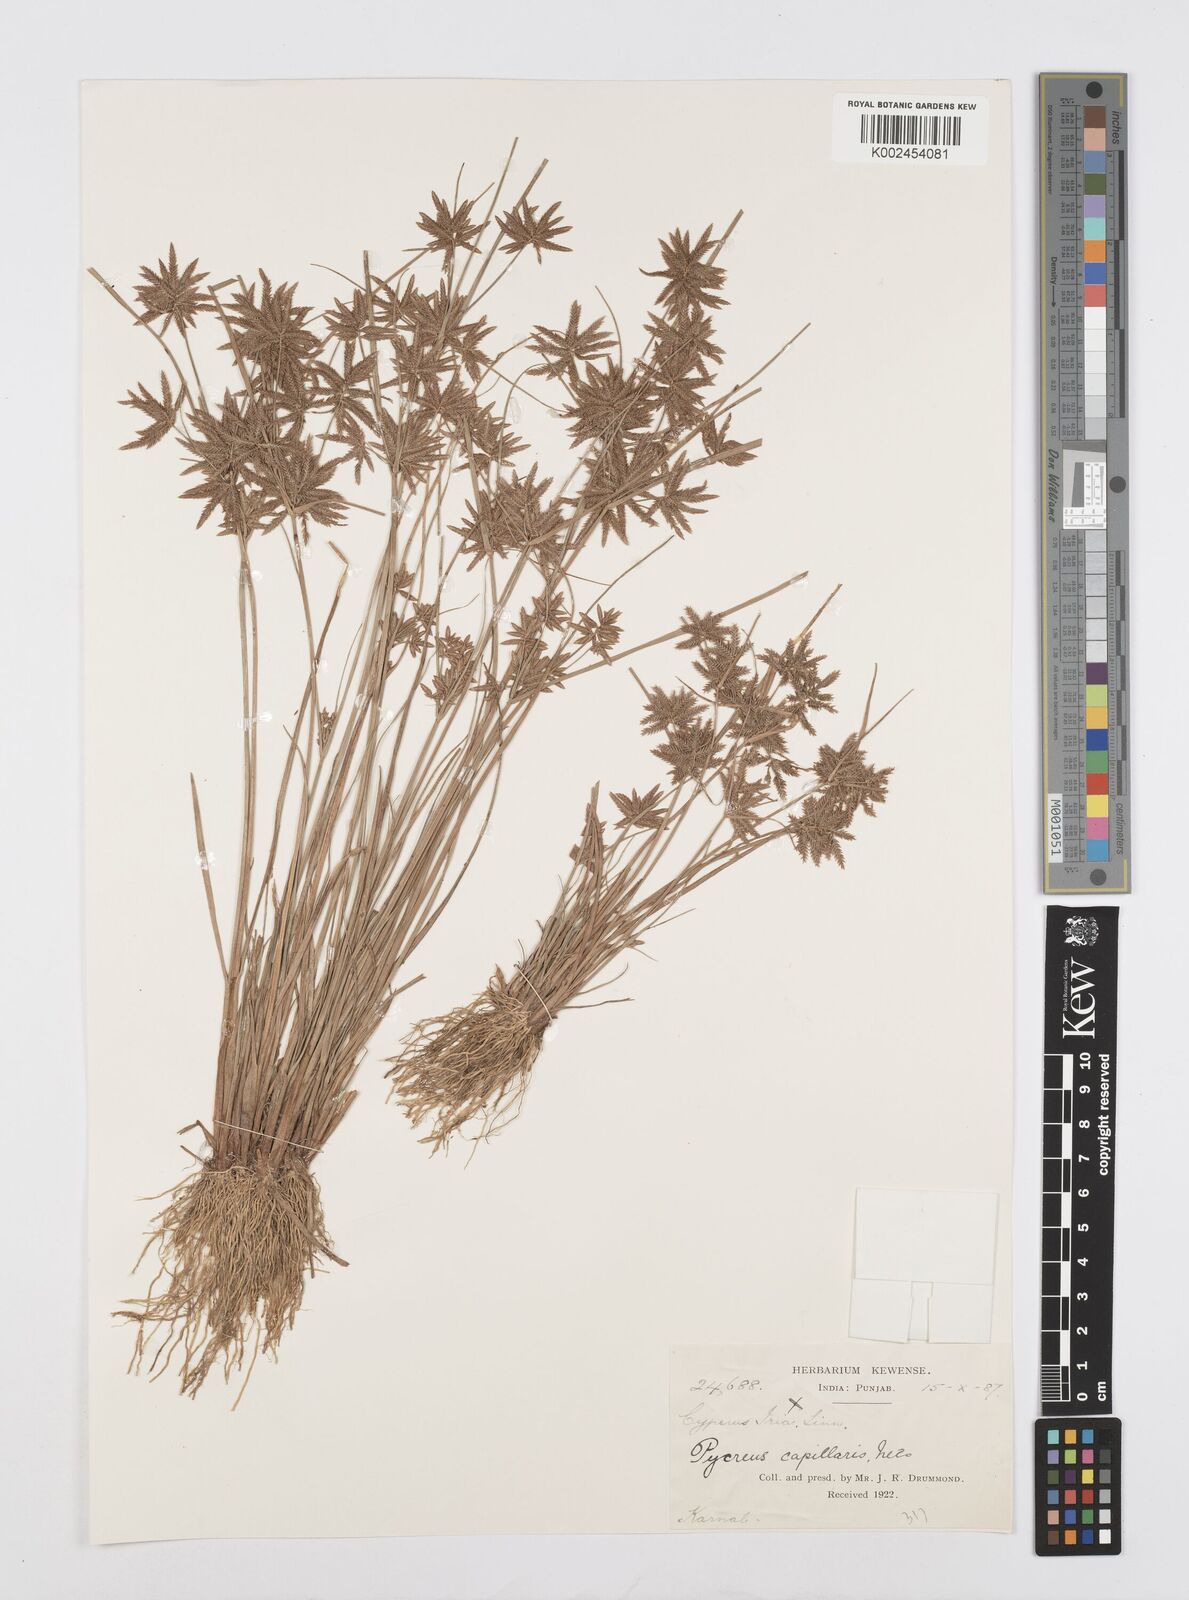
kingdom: Plantae
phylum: Tracheophyta
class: Liliopsida
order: Poales
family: Cyperaceae
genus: Cyperus
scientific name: Cyperus flavidus
